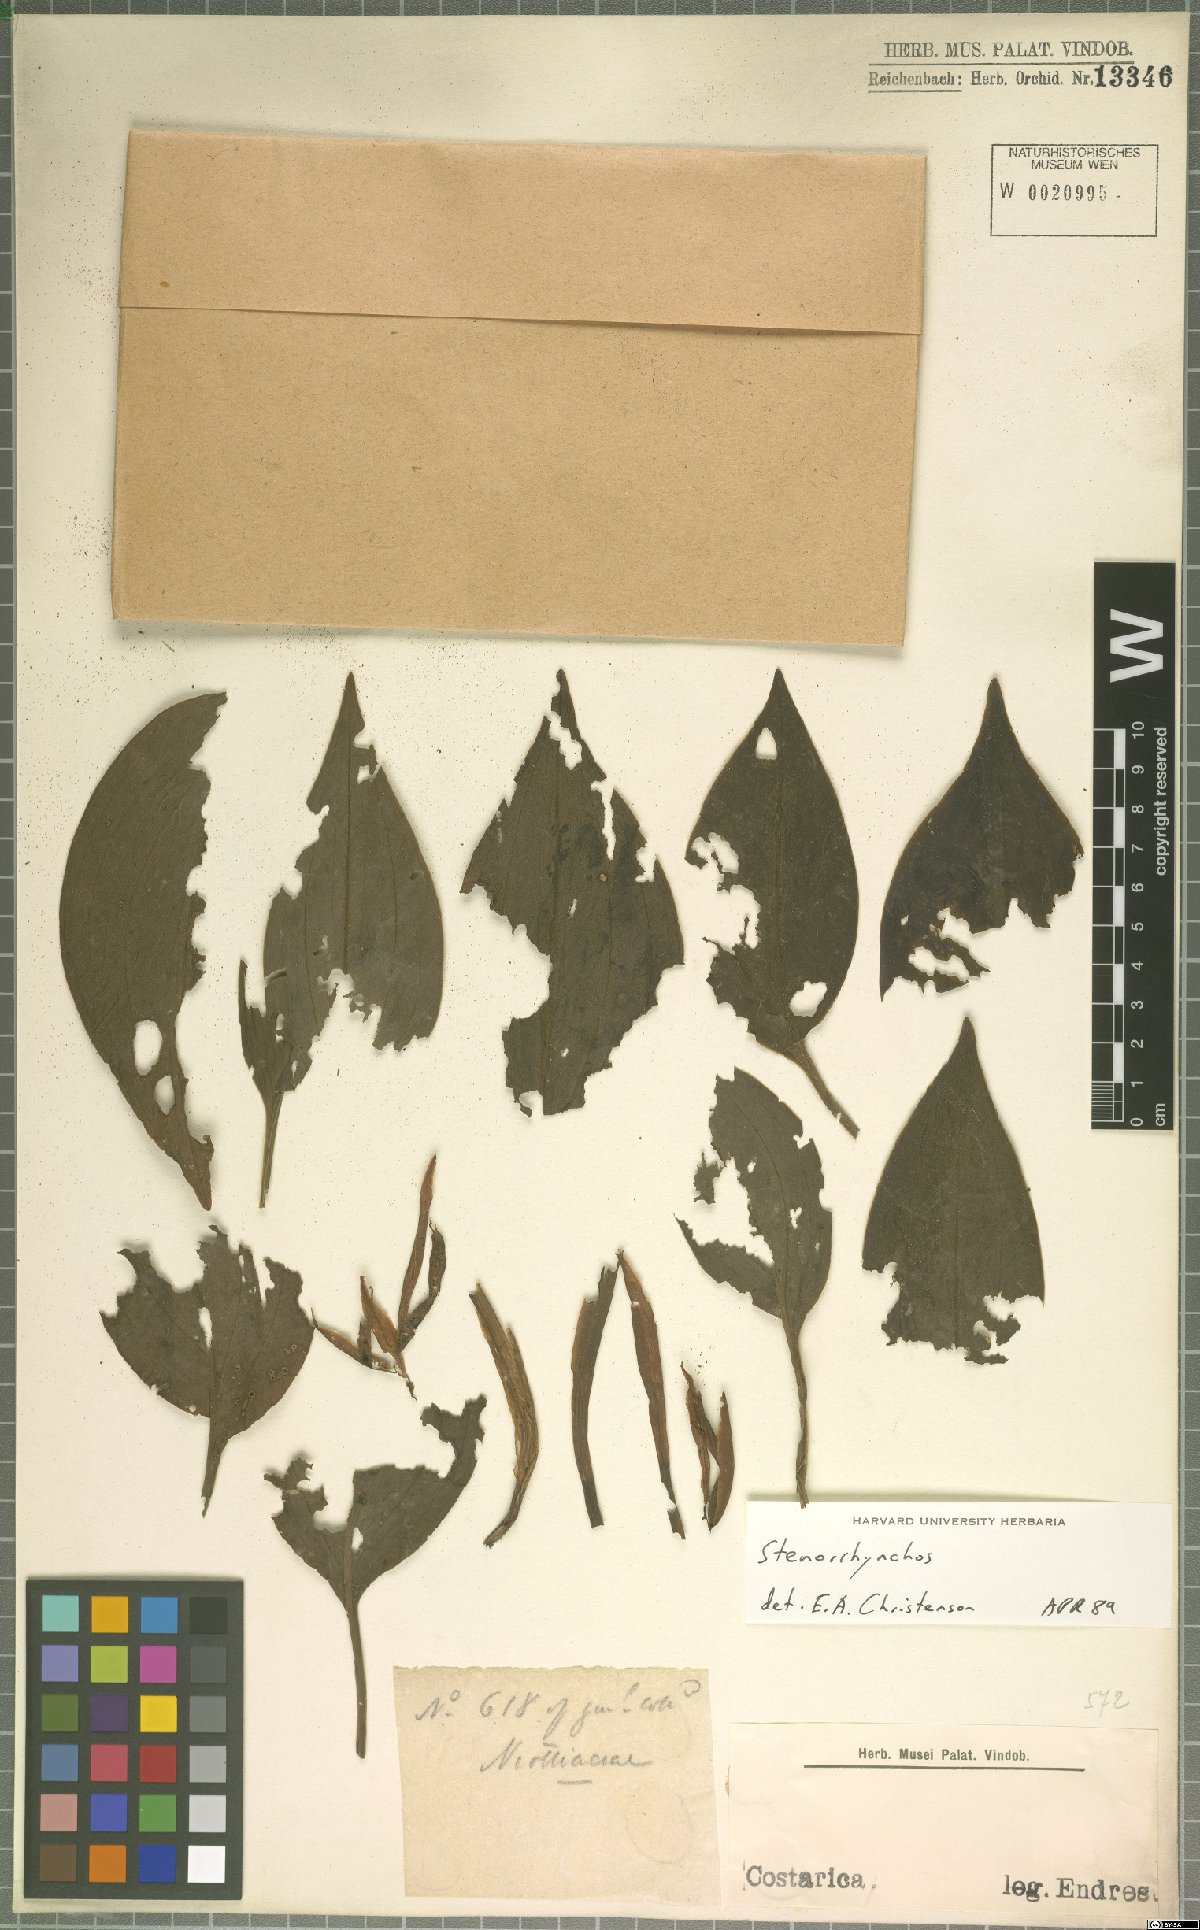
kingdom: Plantae
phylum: Tracheophyta
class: Liliopsida
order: Asparagales
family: Orchidaceae
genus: Stenorrhynchos
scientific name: Stenorrhynchos
